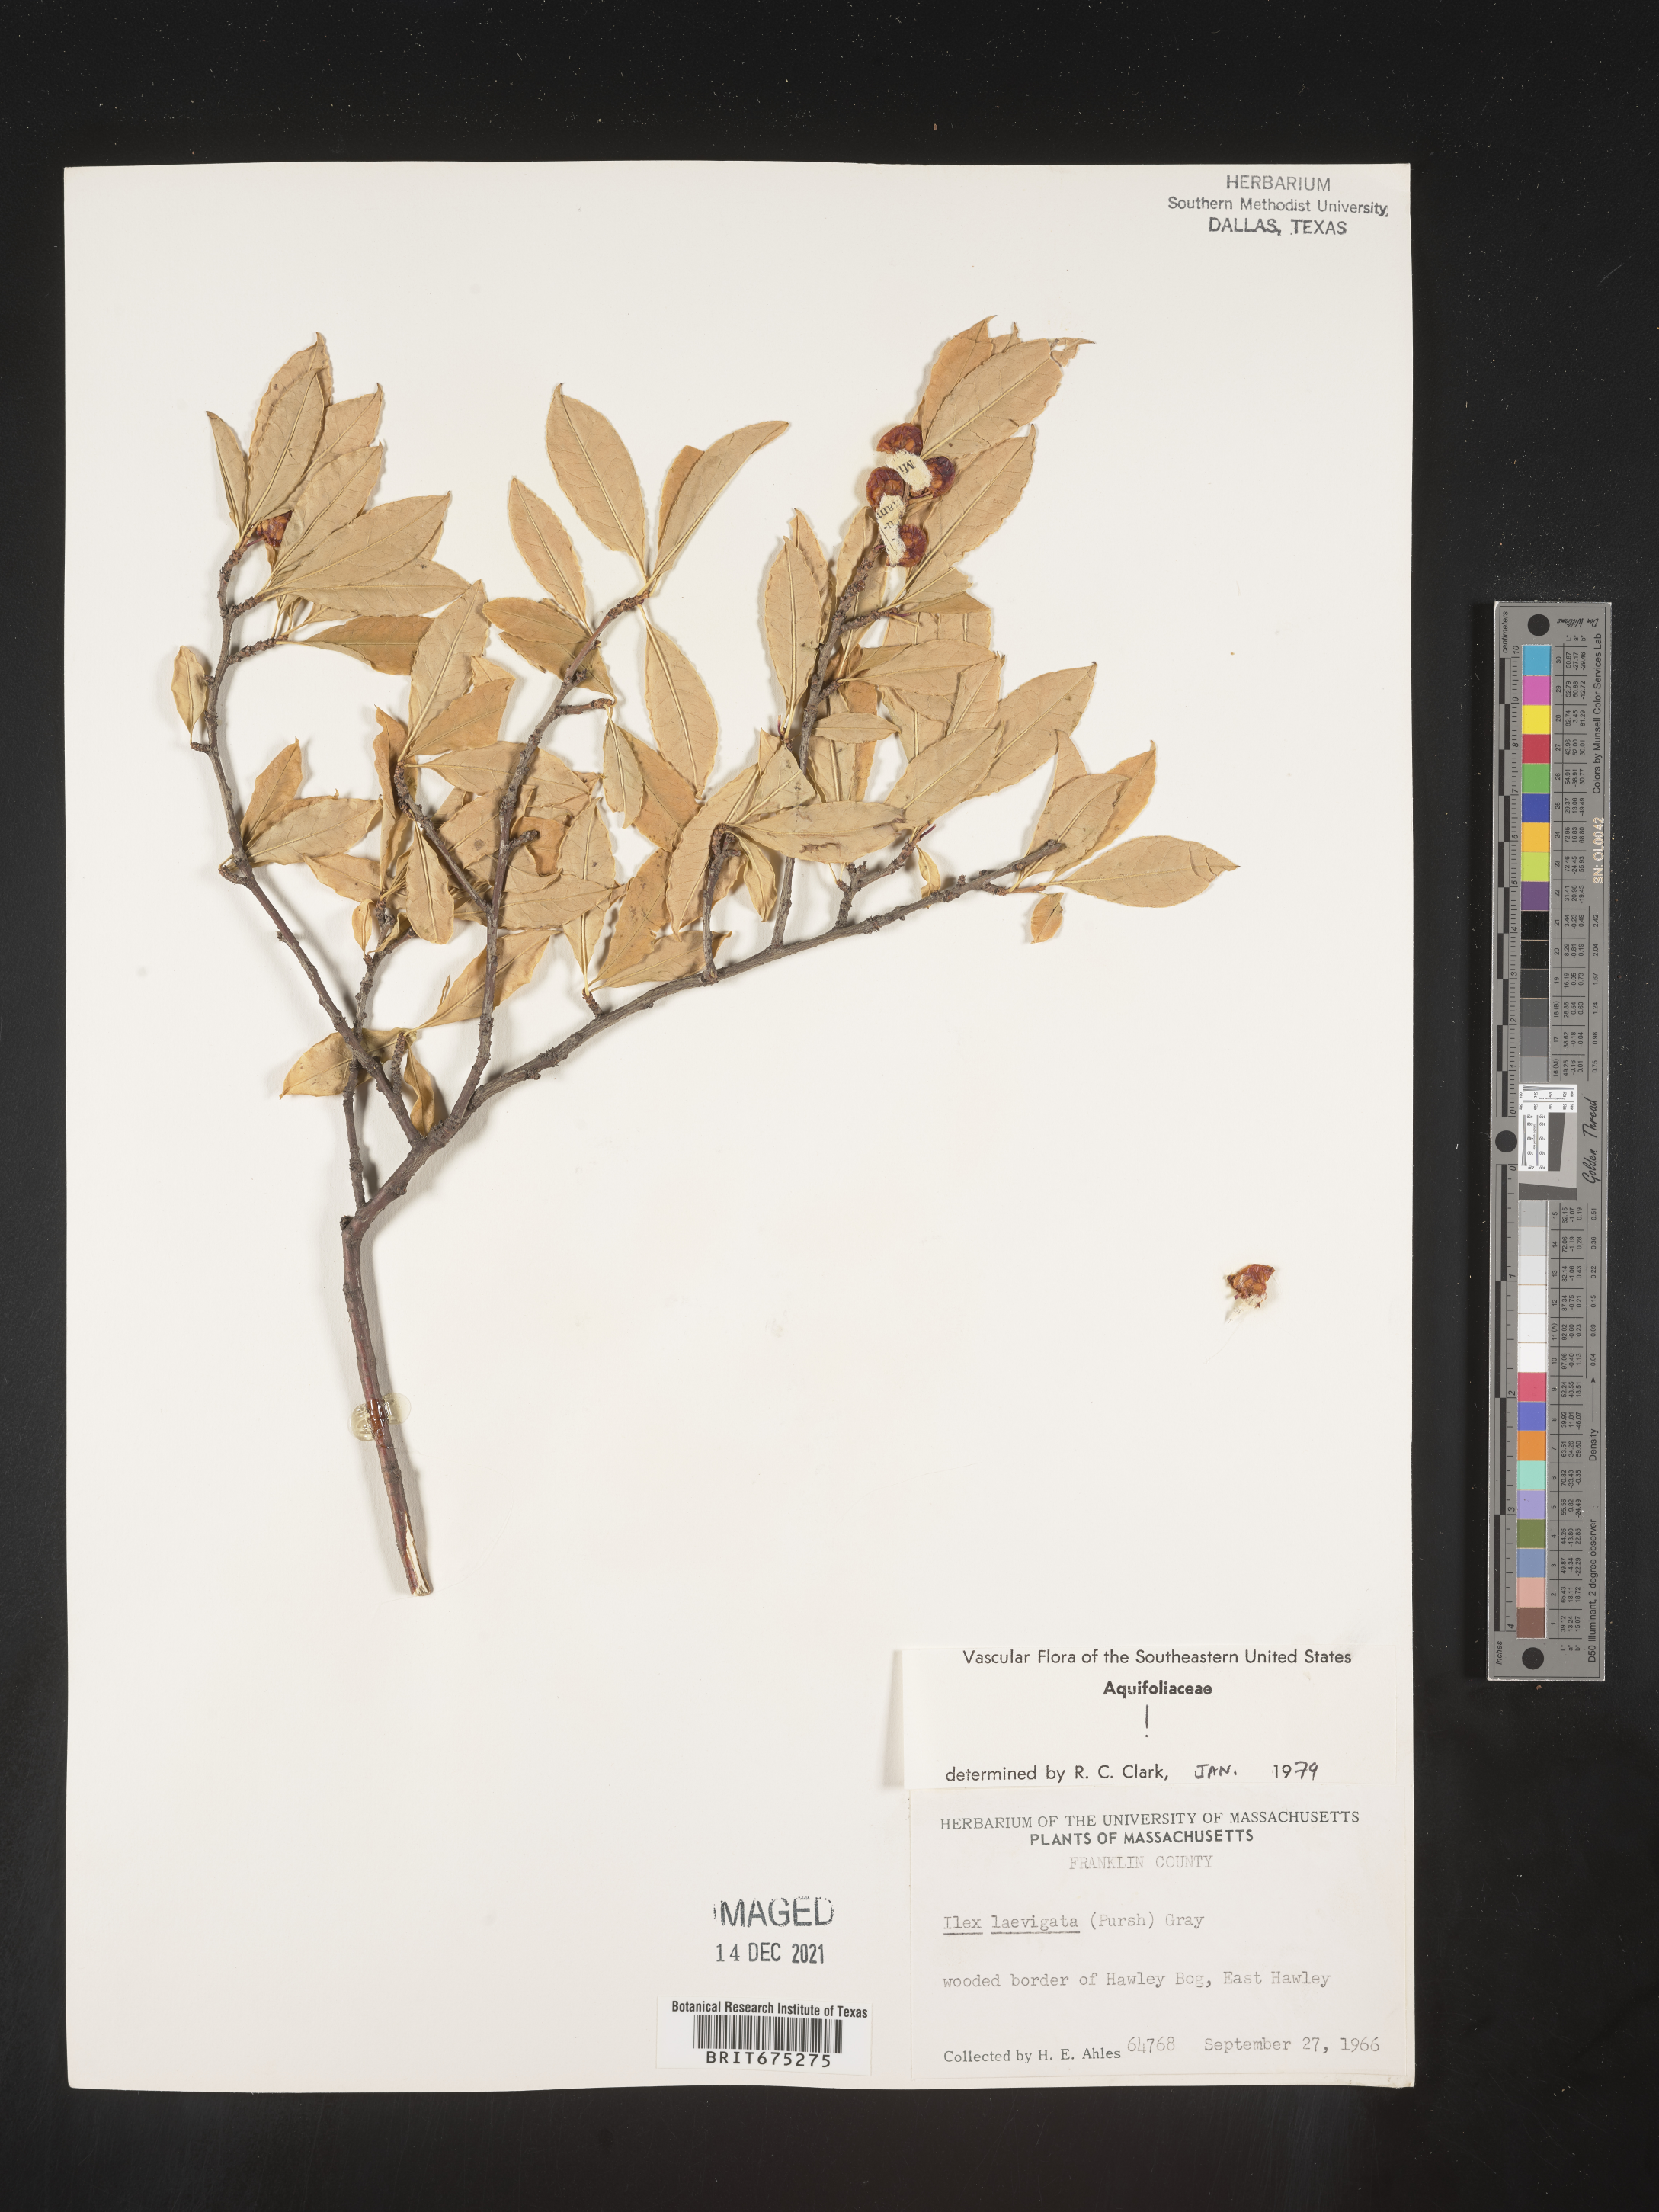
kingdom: Plantae
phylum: Tracheophyta
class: Magnoliopsida
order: Aquifoliales
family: Aquifoliaceae
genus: Ilex
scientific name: Ilex laevigata
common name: Smooth winterberry
